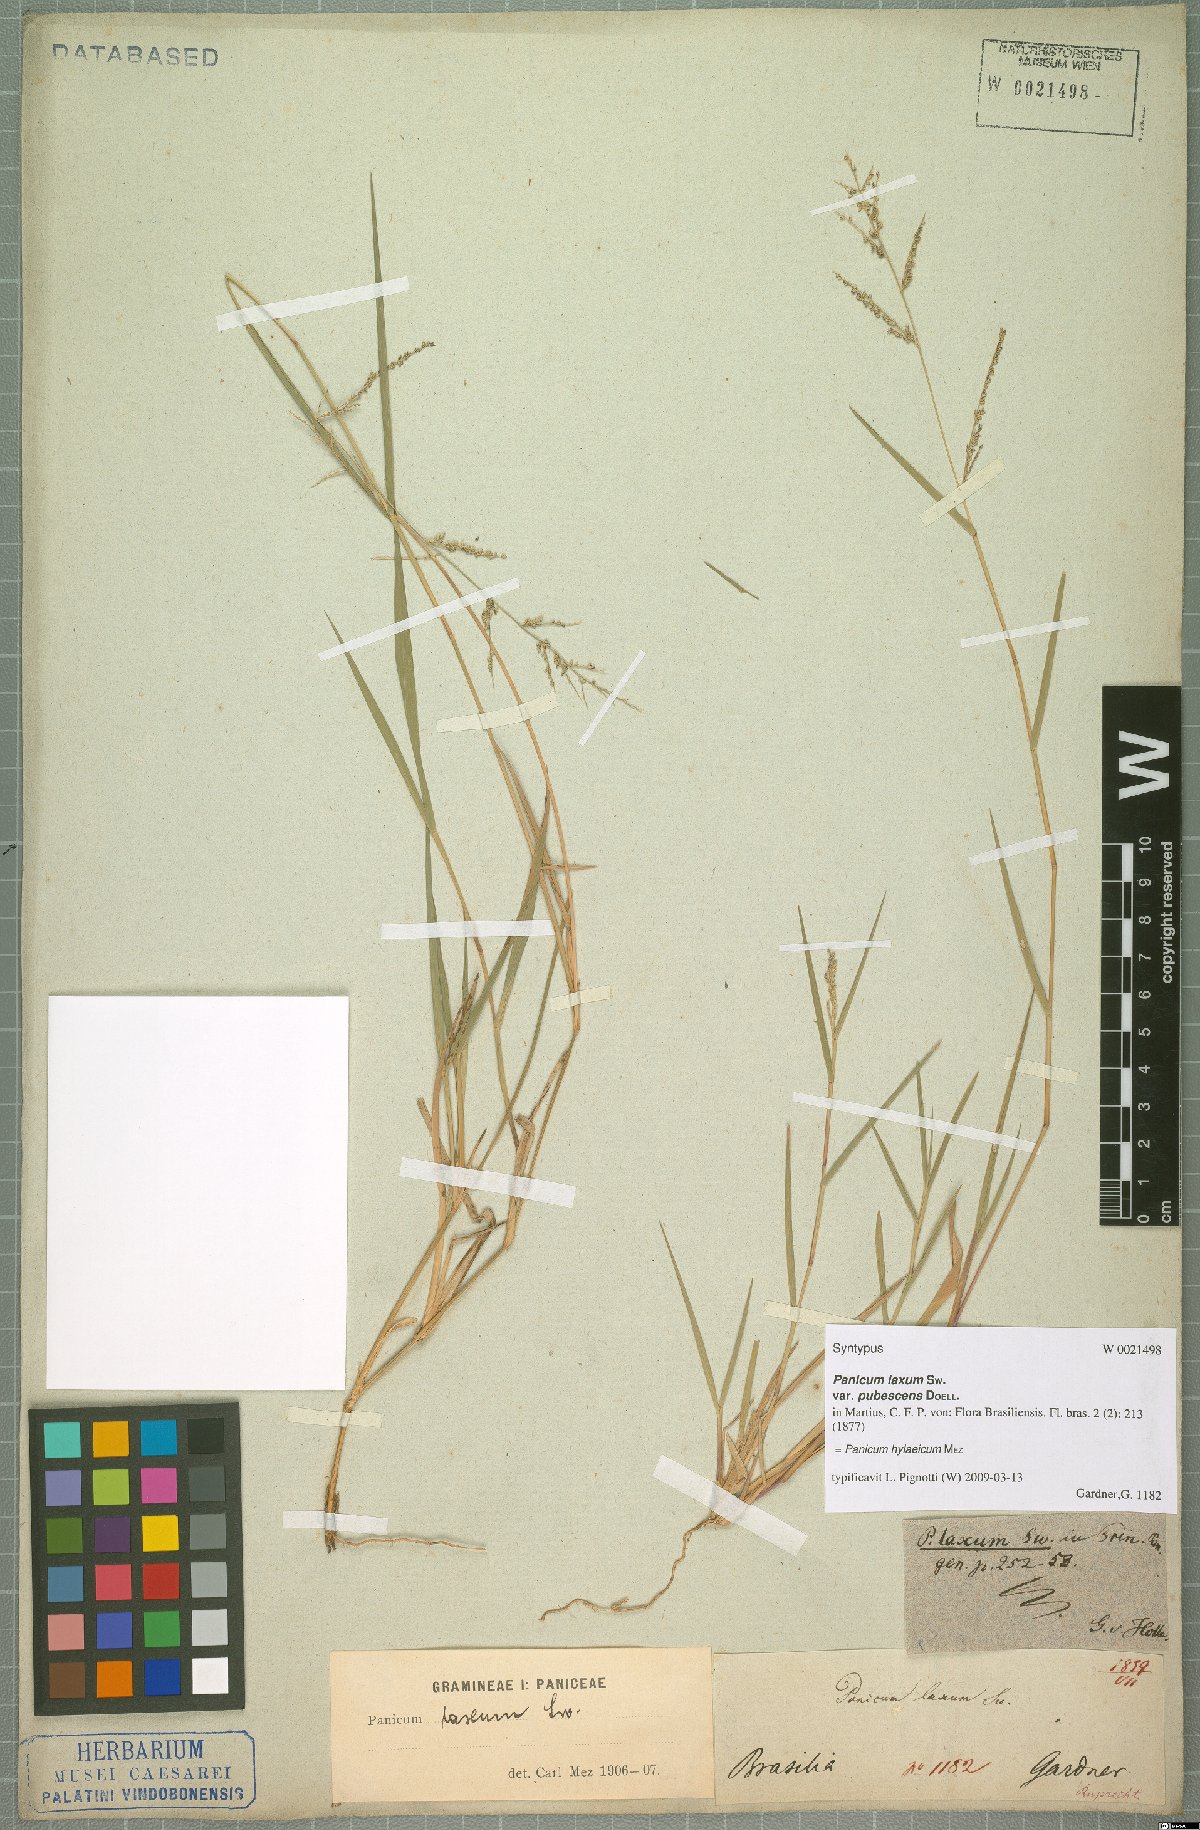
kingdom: Plantae
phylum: Tracheophyta
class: Liliopsida
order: Poales
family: Poaceae
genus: Rugoloa
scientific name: Rugoloa hylaeica
